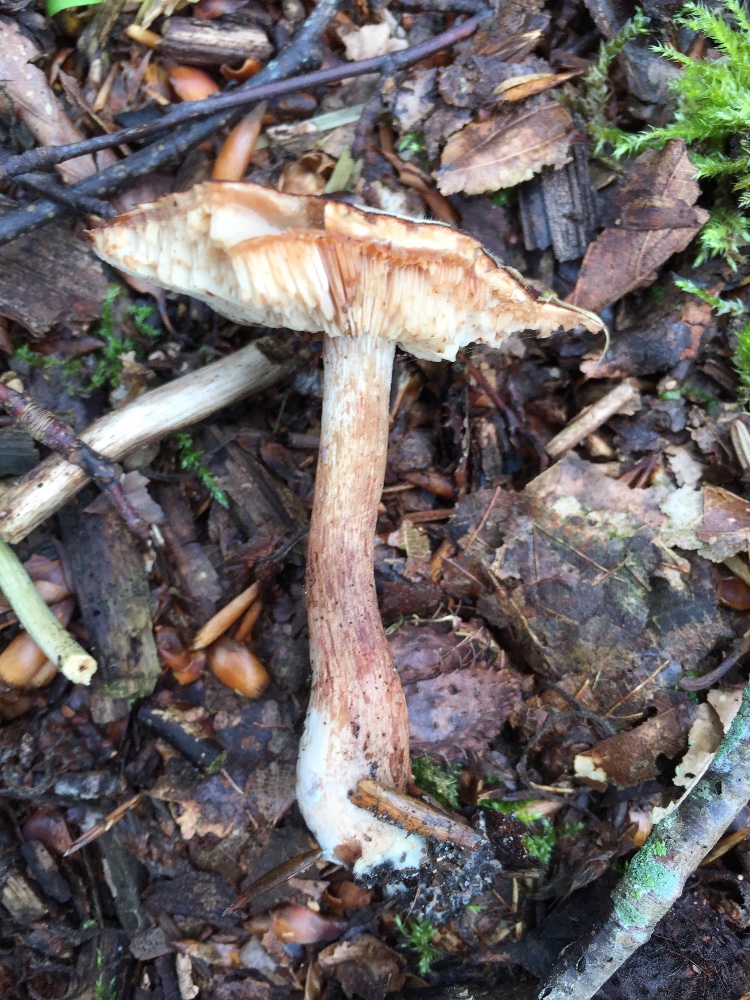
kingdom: Fungi
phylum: Basidiomycota
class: Agaricomycetes
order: Agaricales
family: Tricholomataceae
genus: Tricholoma
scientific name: Tricholoma ustale
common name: sveden ridderhat
